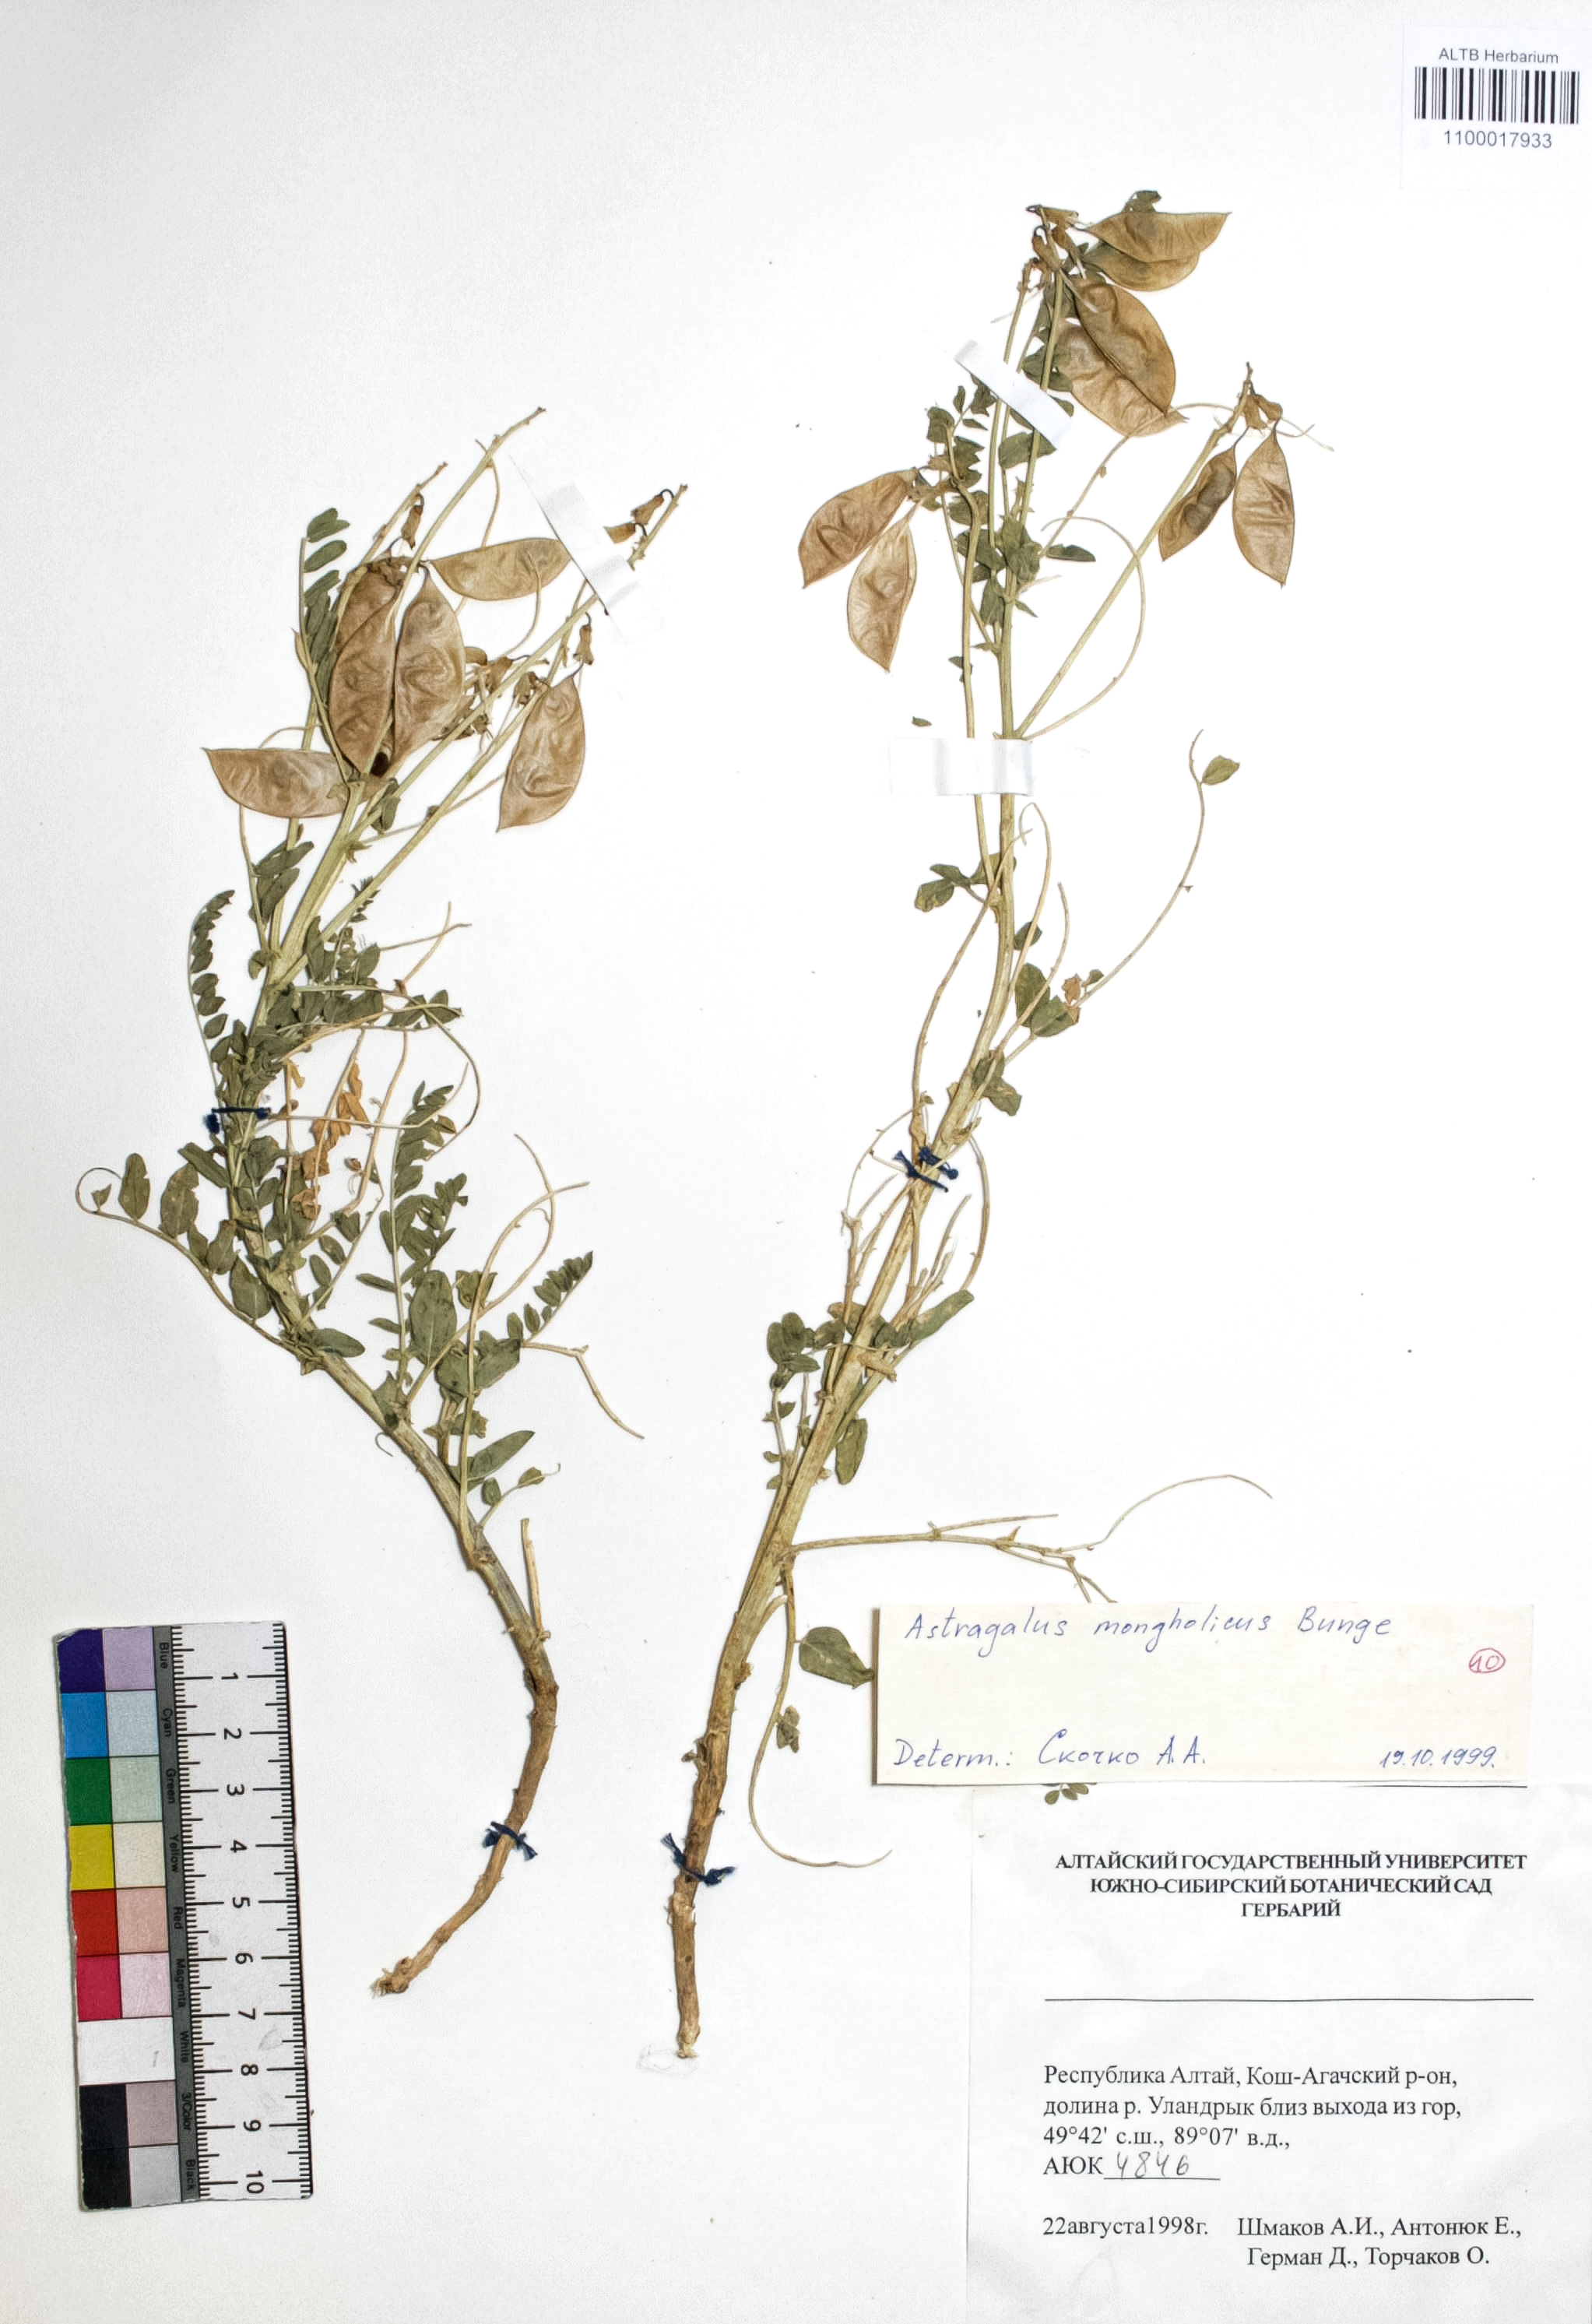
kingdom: Plantae
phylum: Tracheophyta
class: Magnoliopsida
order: Fabales
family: Fabaceae
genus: Astragalus
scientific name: Astragalus mongolicus
